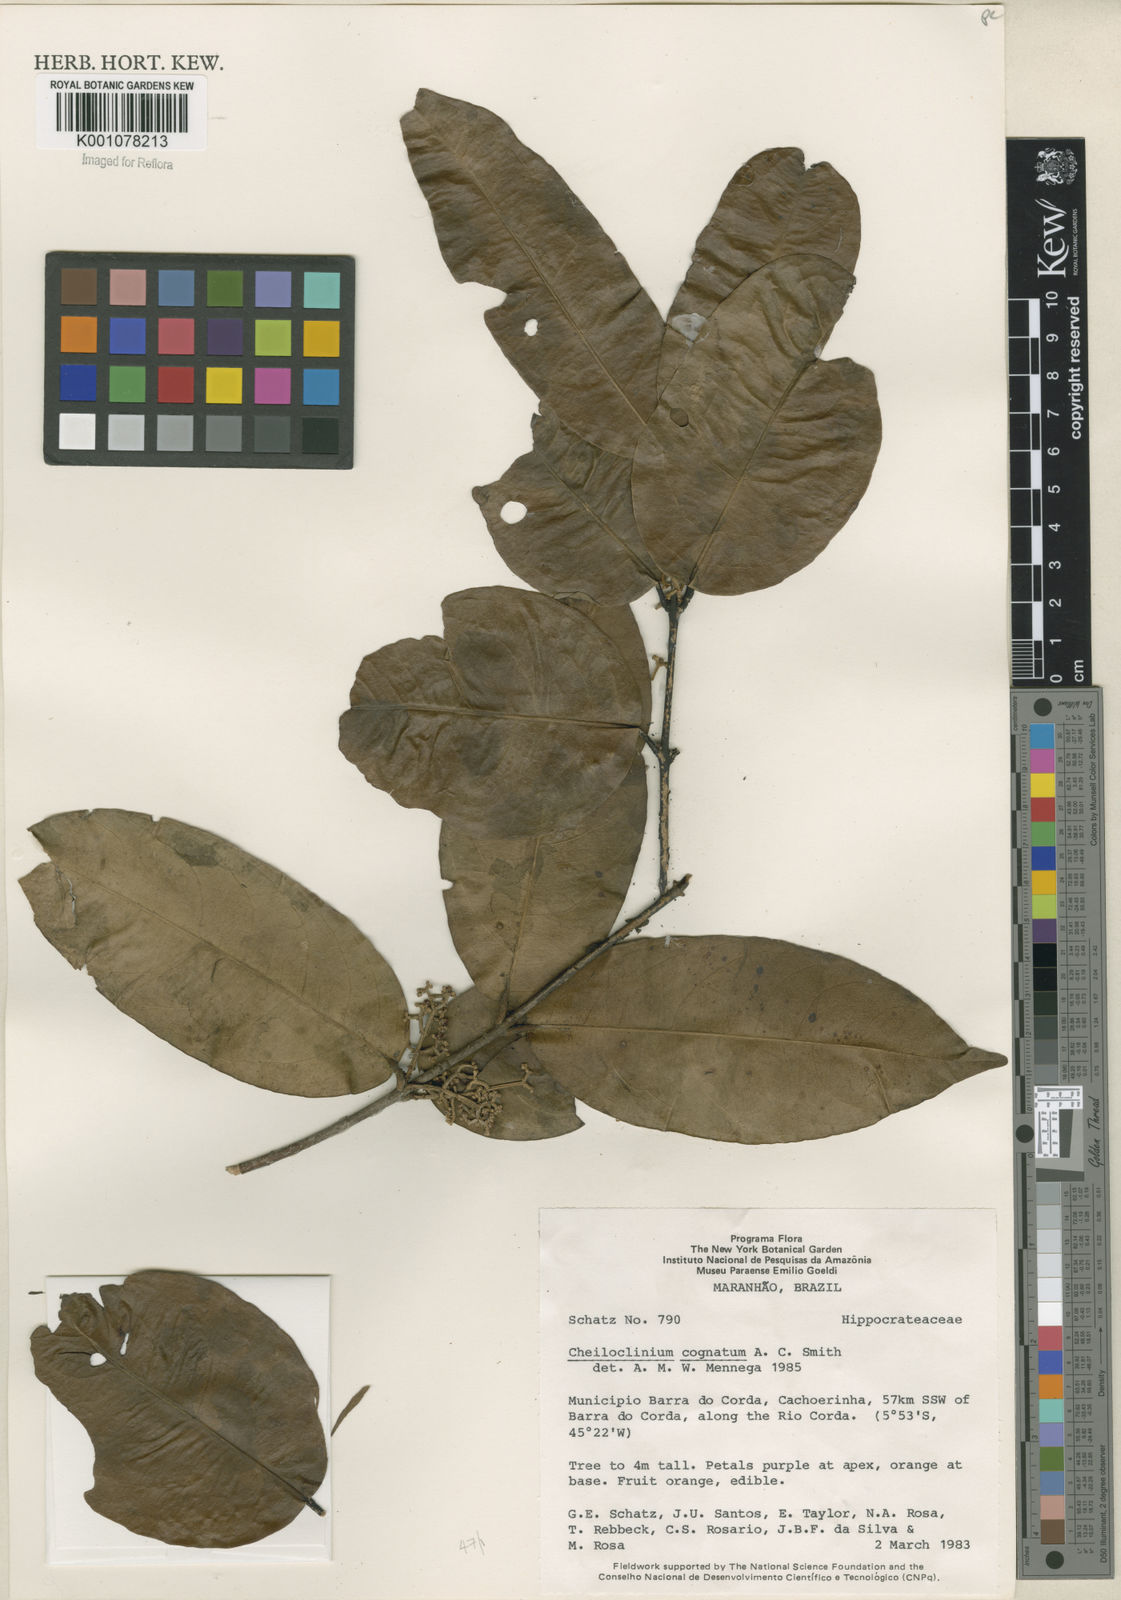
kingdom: Plantae
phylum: Tracheophyta
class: Magnoliopsida
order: Celastrales
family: Celastraceae
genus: Cheiloclinium
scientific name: Cheiloclinium cognatum
